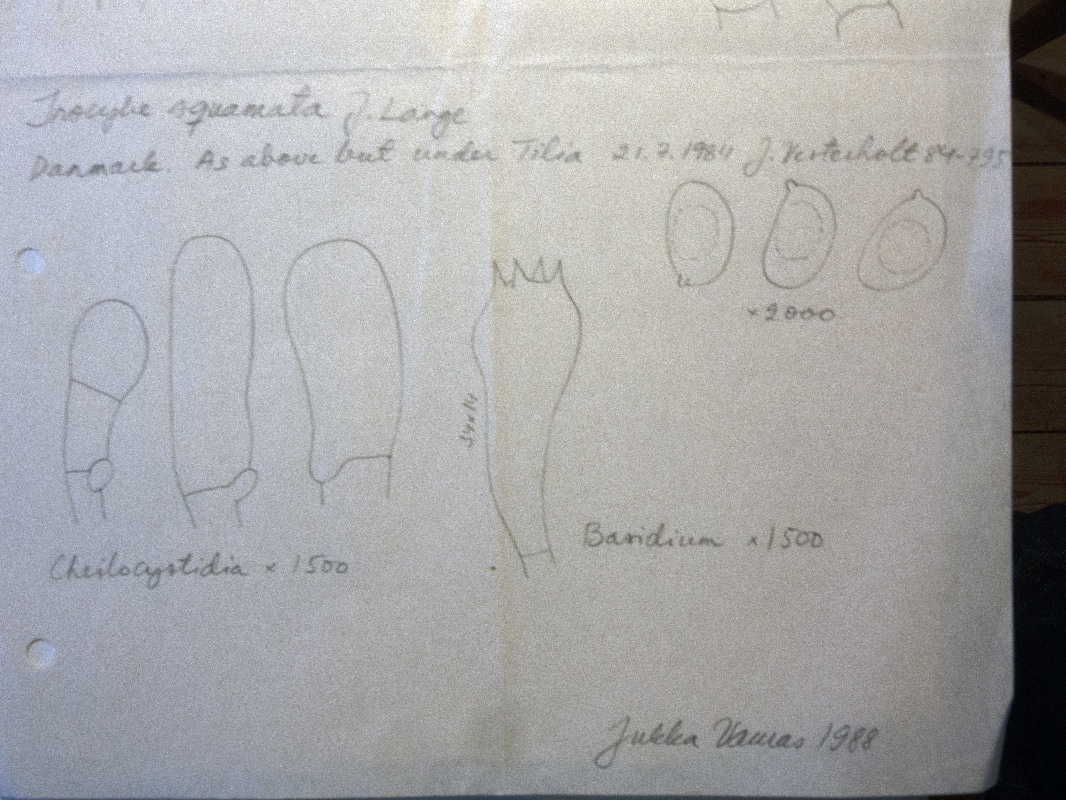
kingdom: Fungi
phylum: Basidiomycota
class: Agaricomycetes
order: Agaricales
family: Inocybaceae
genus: Pseudosperma
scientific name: Pseudosperma
